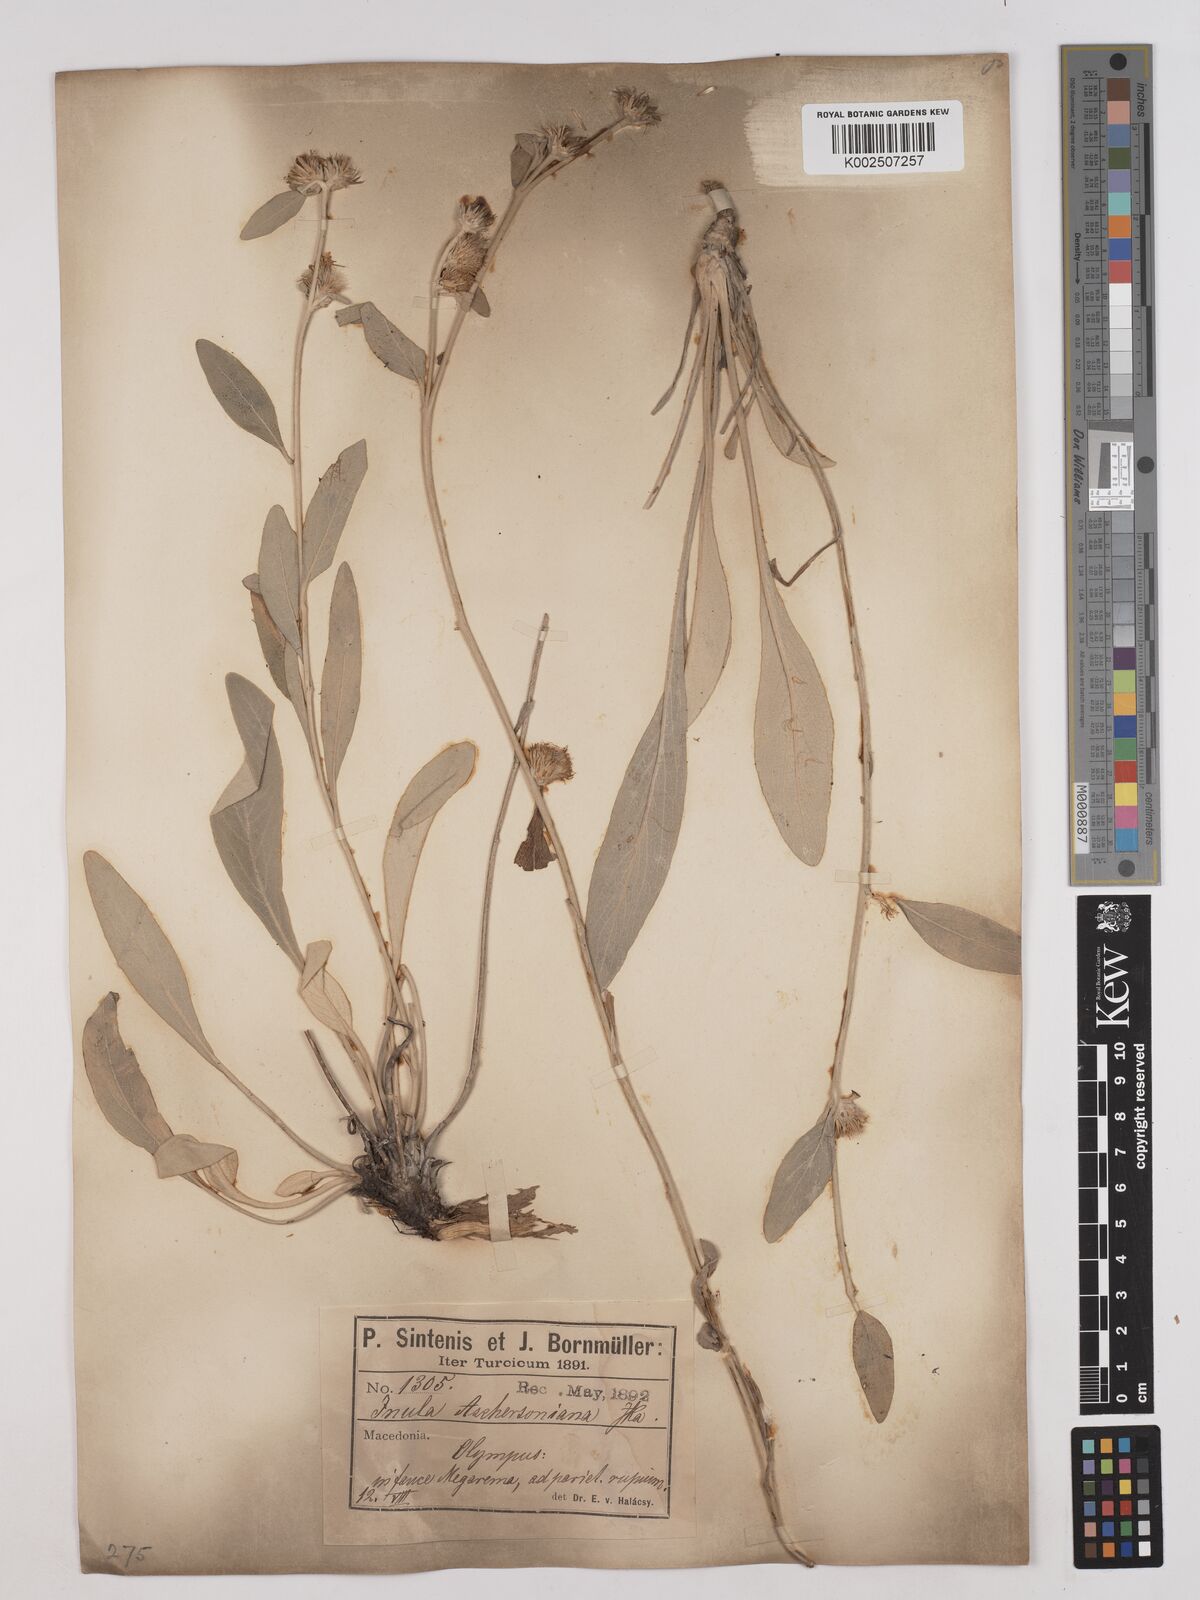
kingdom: Plantae
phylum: Tracheophyta
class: Magnoliopsida
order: Asterales
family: Asteraceae
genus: Pentanema
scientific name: Pentanema verbascifolium
